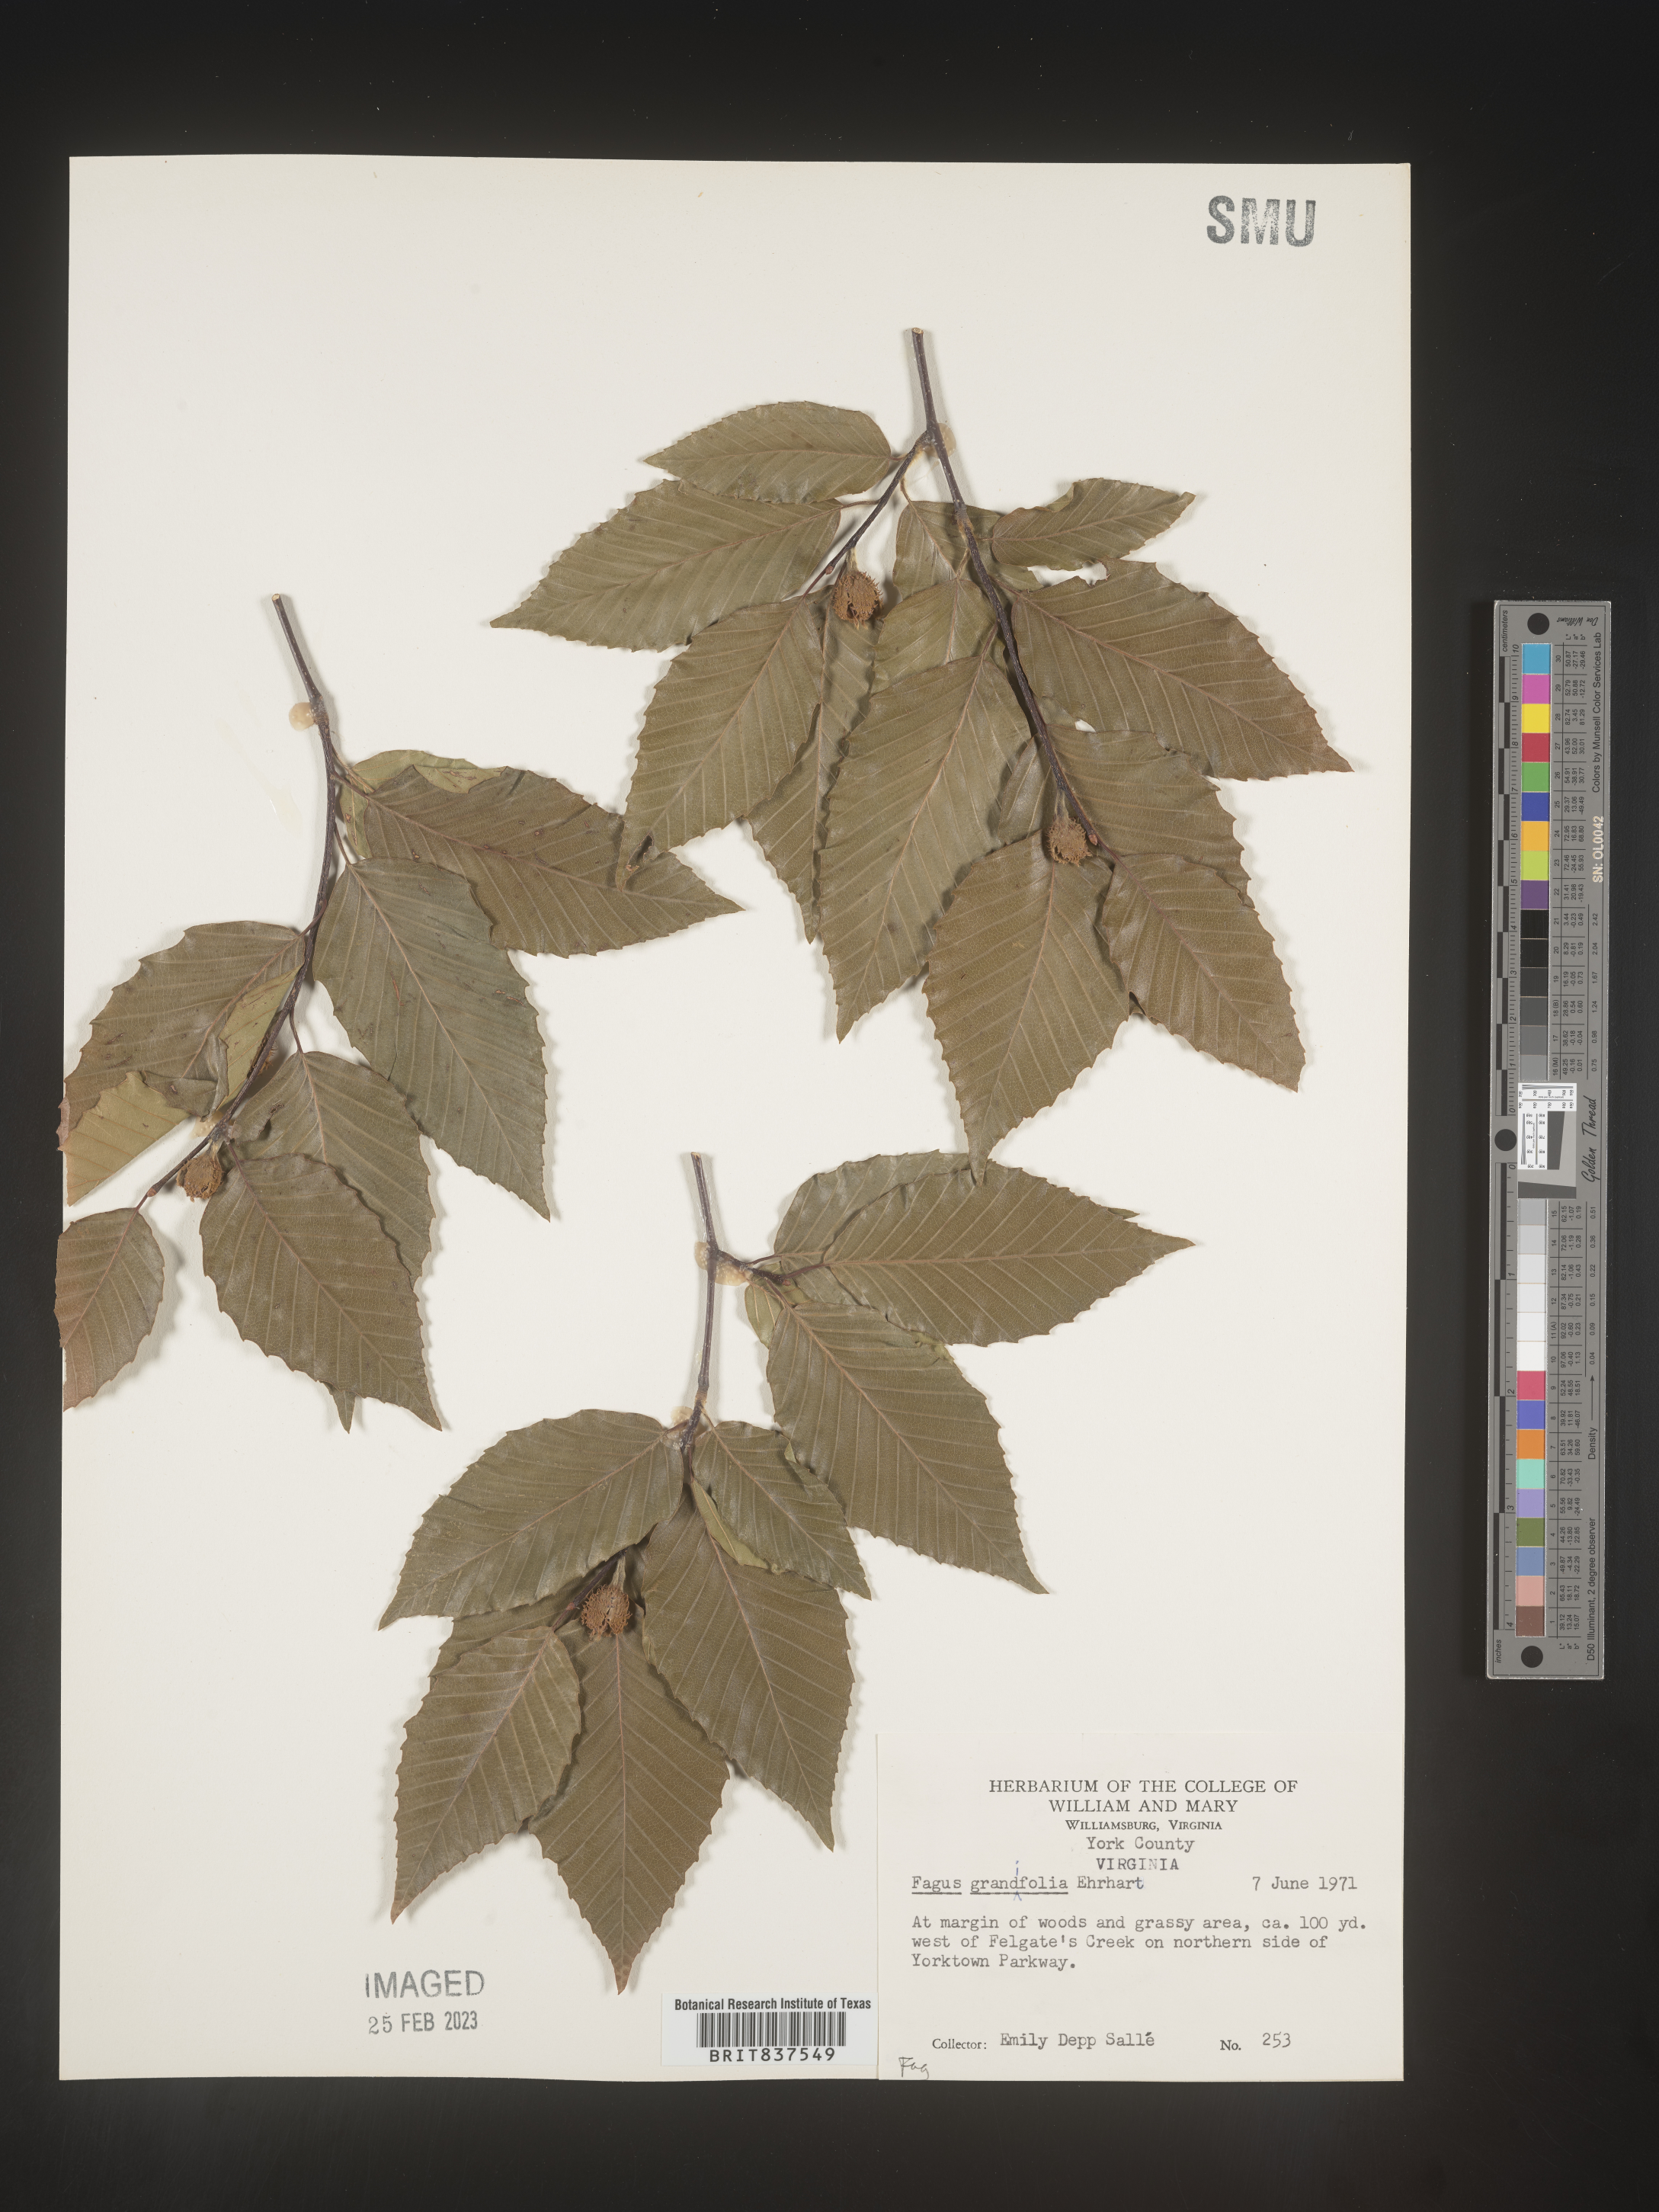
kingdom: Plantae
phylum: Tracheophyta
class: Magnoliopsida
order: Fagales
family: Fagaceae
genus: Fagus
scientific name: Fagus grandifolia
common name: American beech
